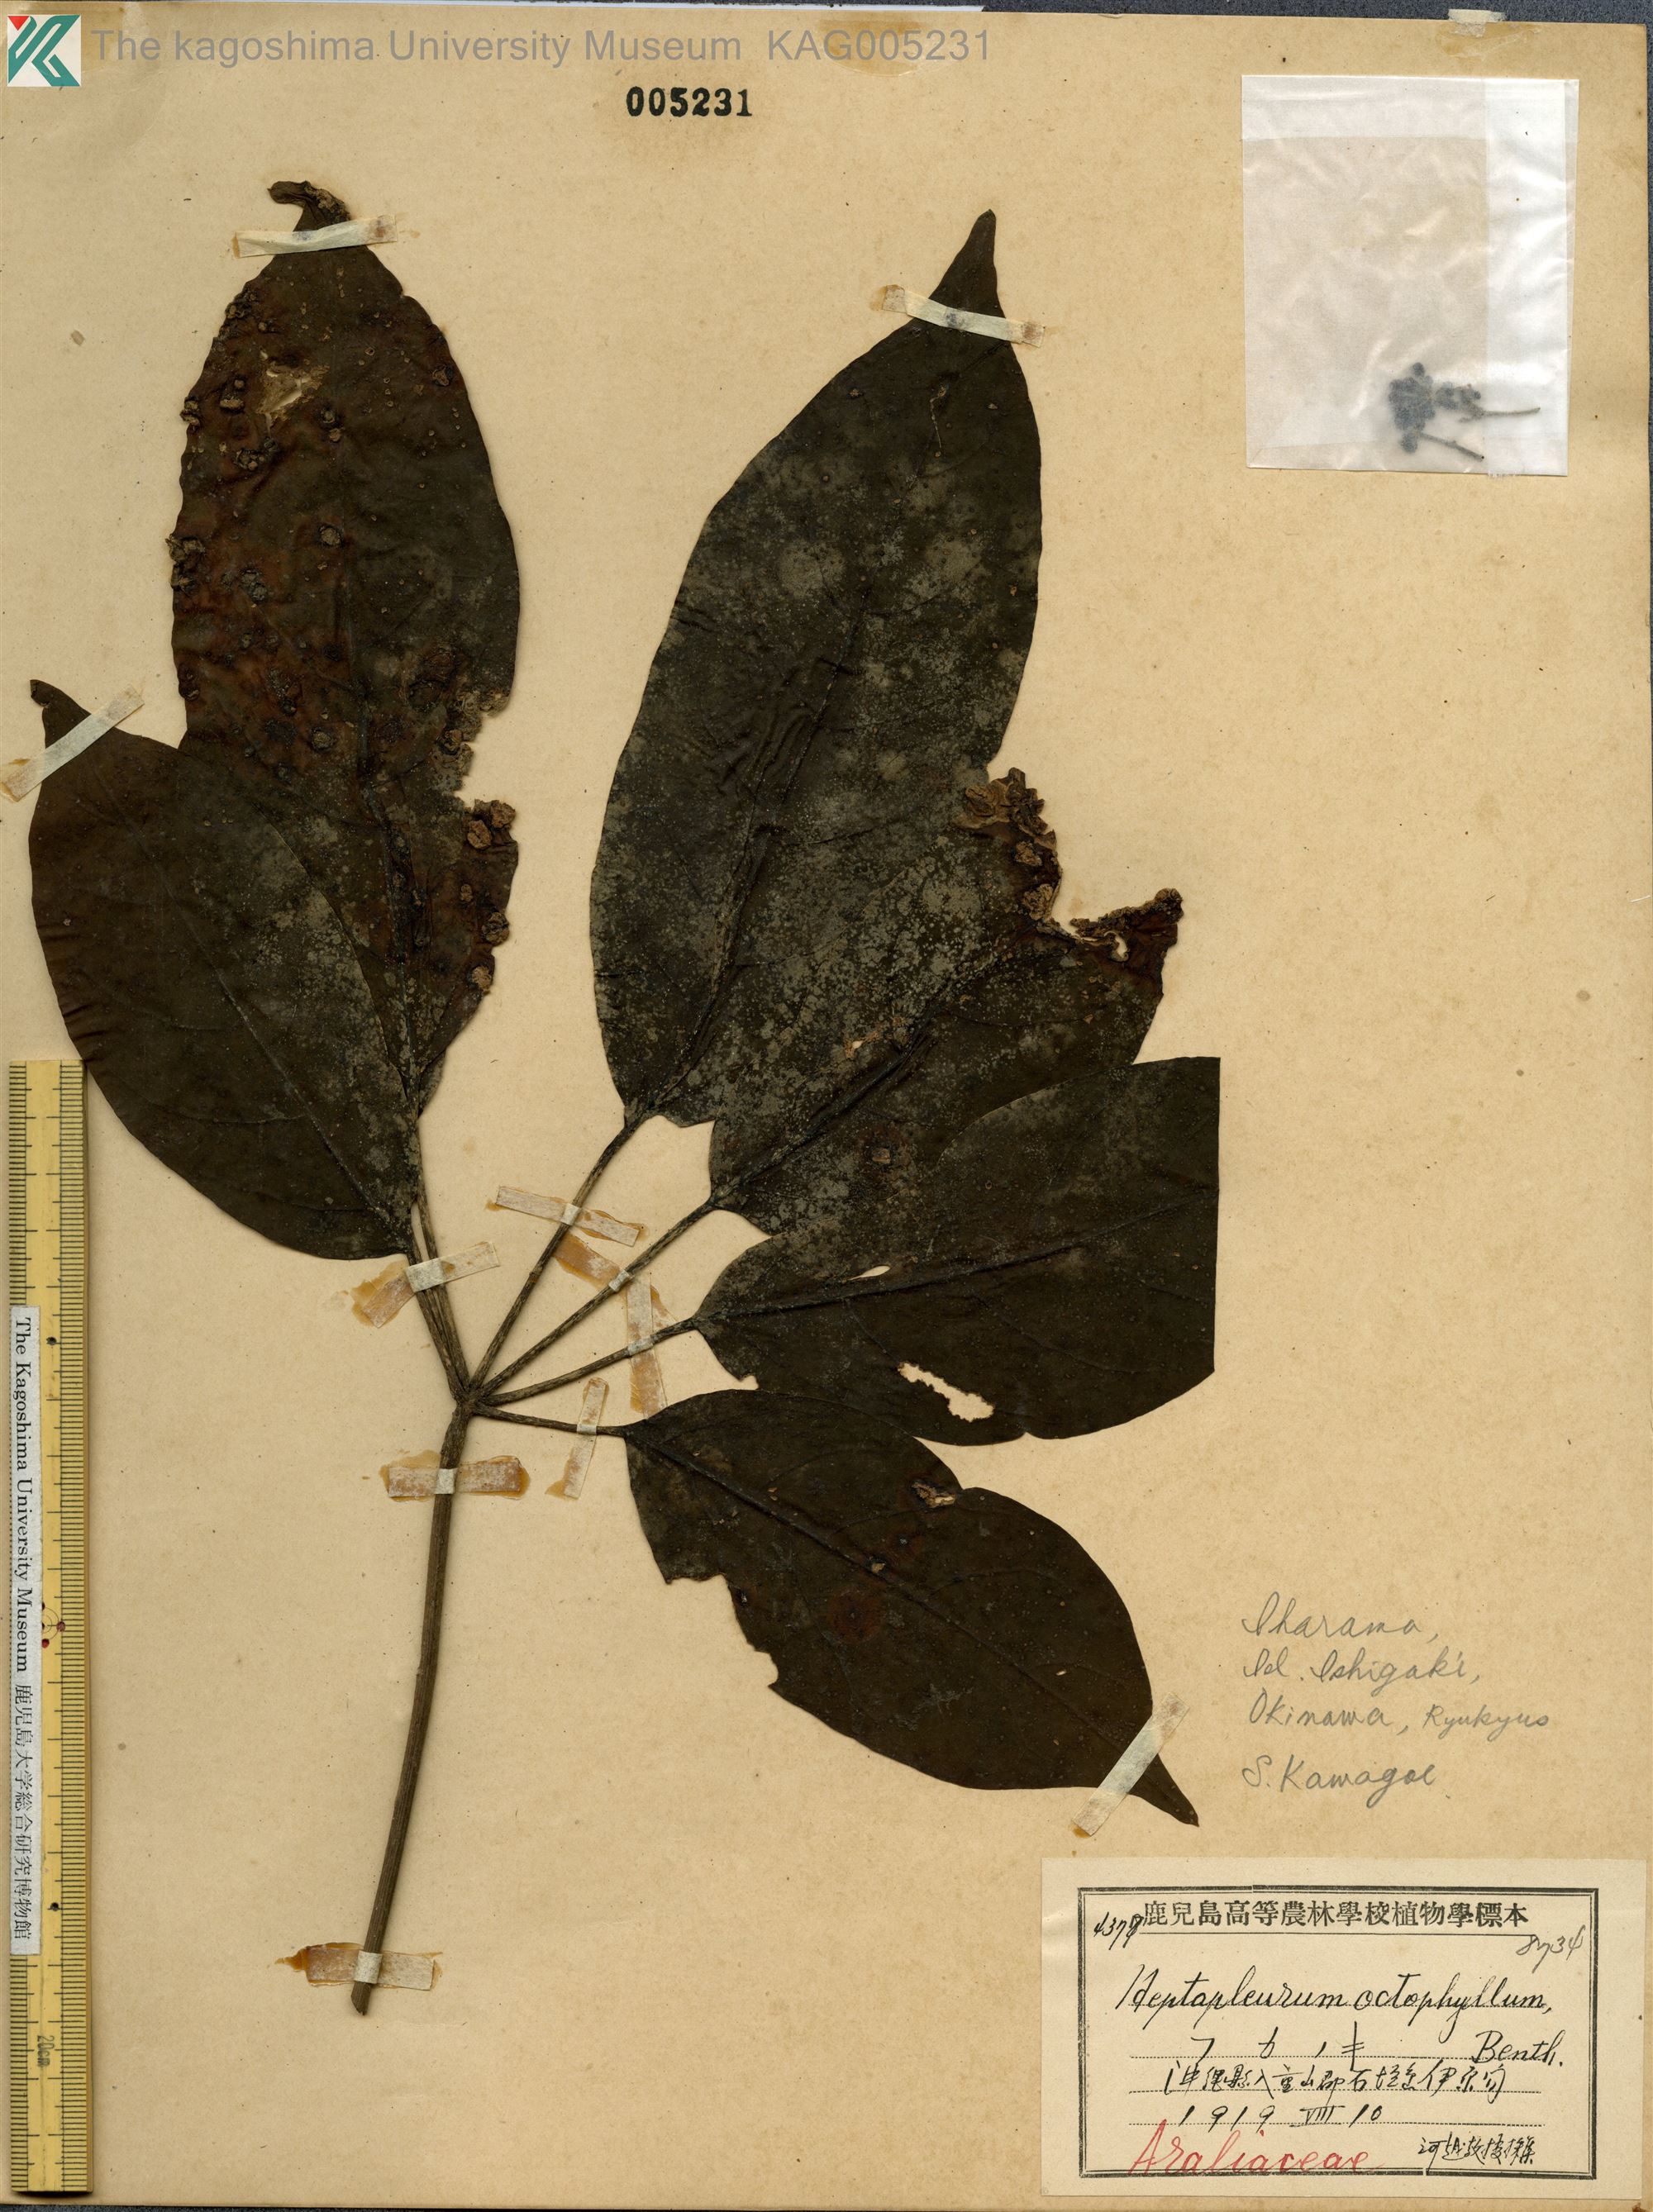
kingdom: Plantae
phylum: Tracheophyta
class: Magnoliopsida
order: Apiales
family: Araliaceae
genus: Heptapleurum
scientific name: Heptapleurum heptaphyllum
